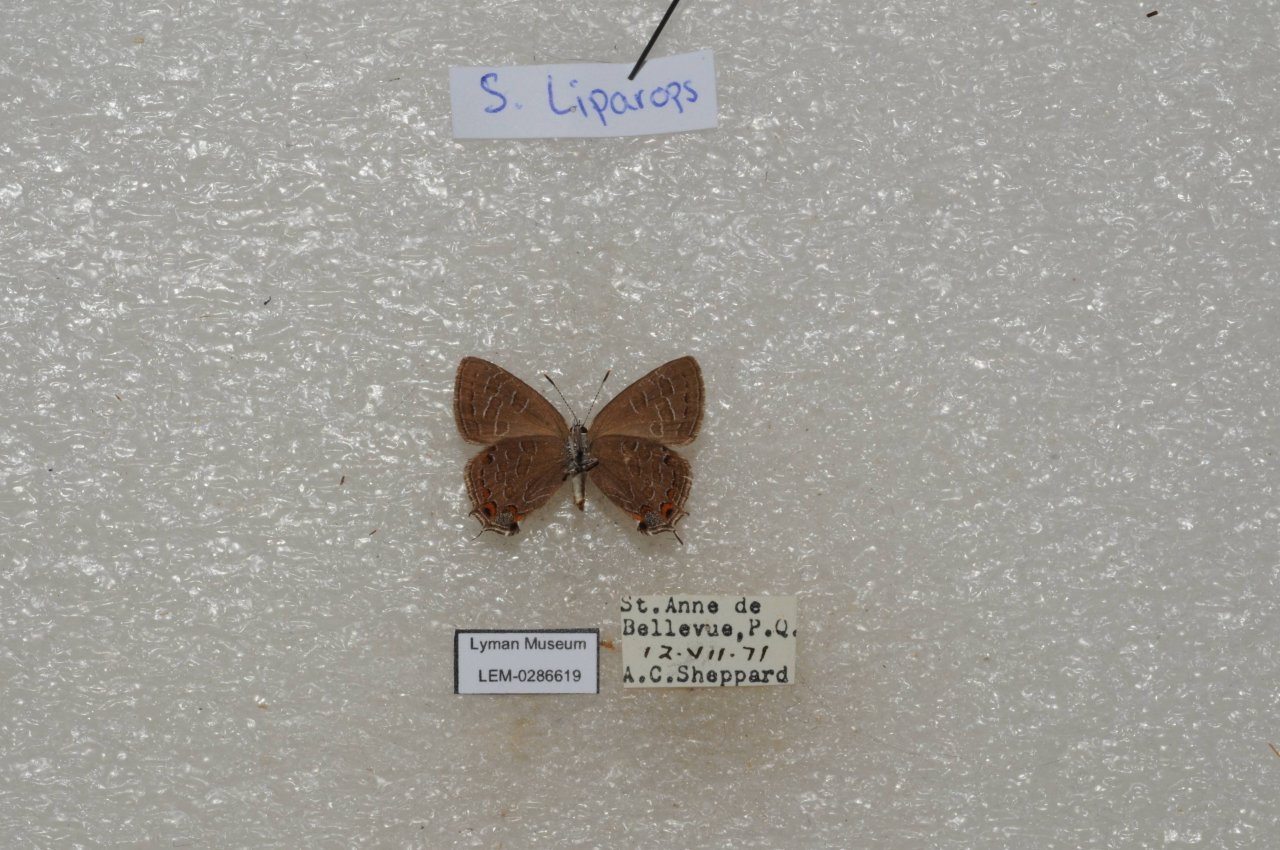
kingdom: Animalia
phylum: Arthropoda
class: Insecta
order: Lepidoptera
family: Lycaenidae
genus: Satyrium
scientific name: Satyrium liparops
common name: Striped Hairstreak
